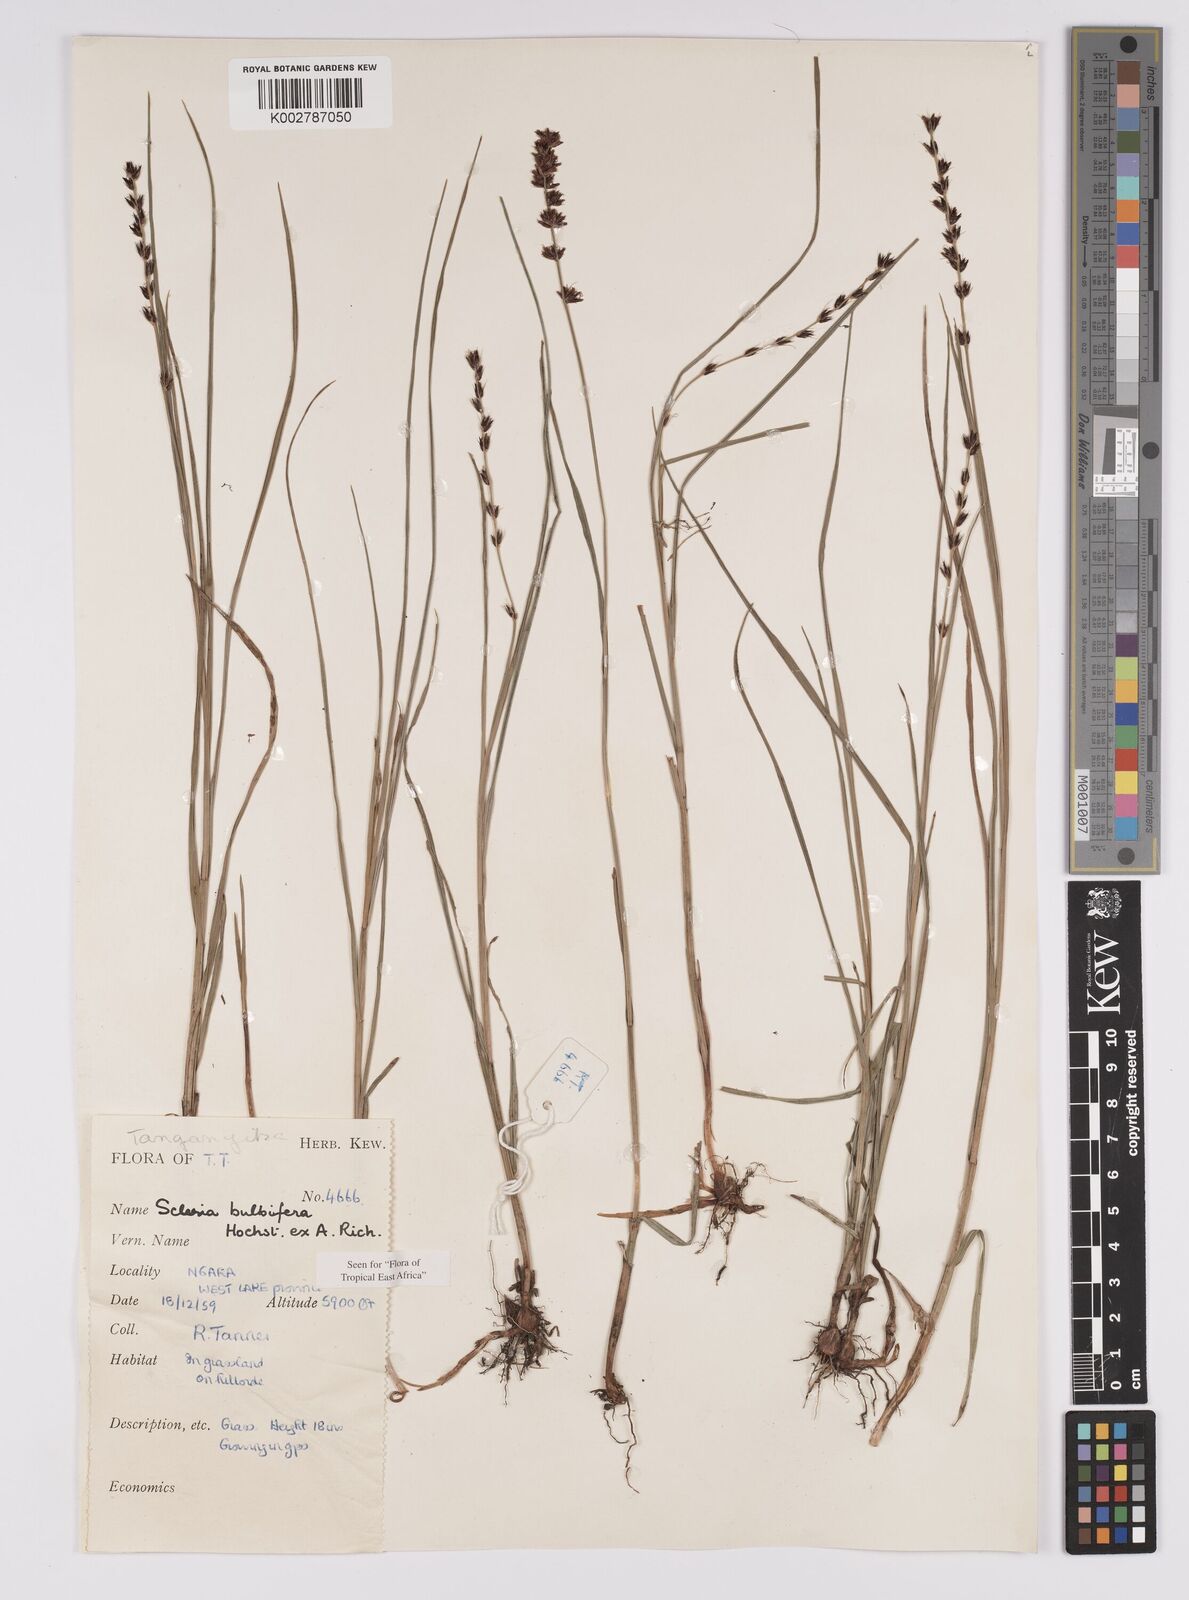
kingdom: Plantae
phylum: Tracheophyta
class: Liliopsida
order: Poales
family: Cyperaceae
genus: Scleria
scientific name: Scleria bulbifera
